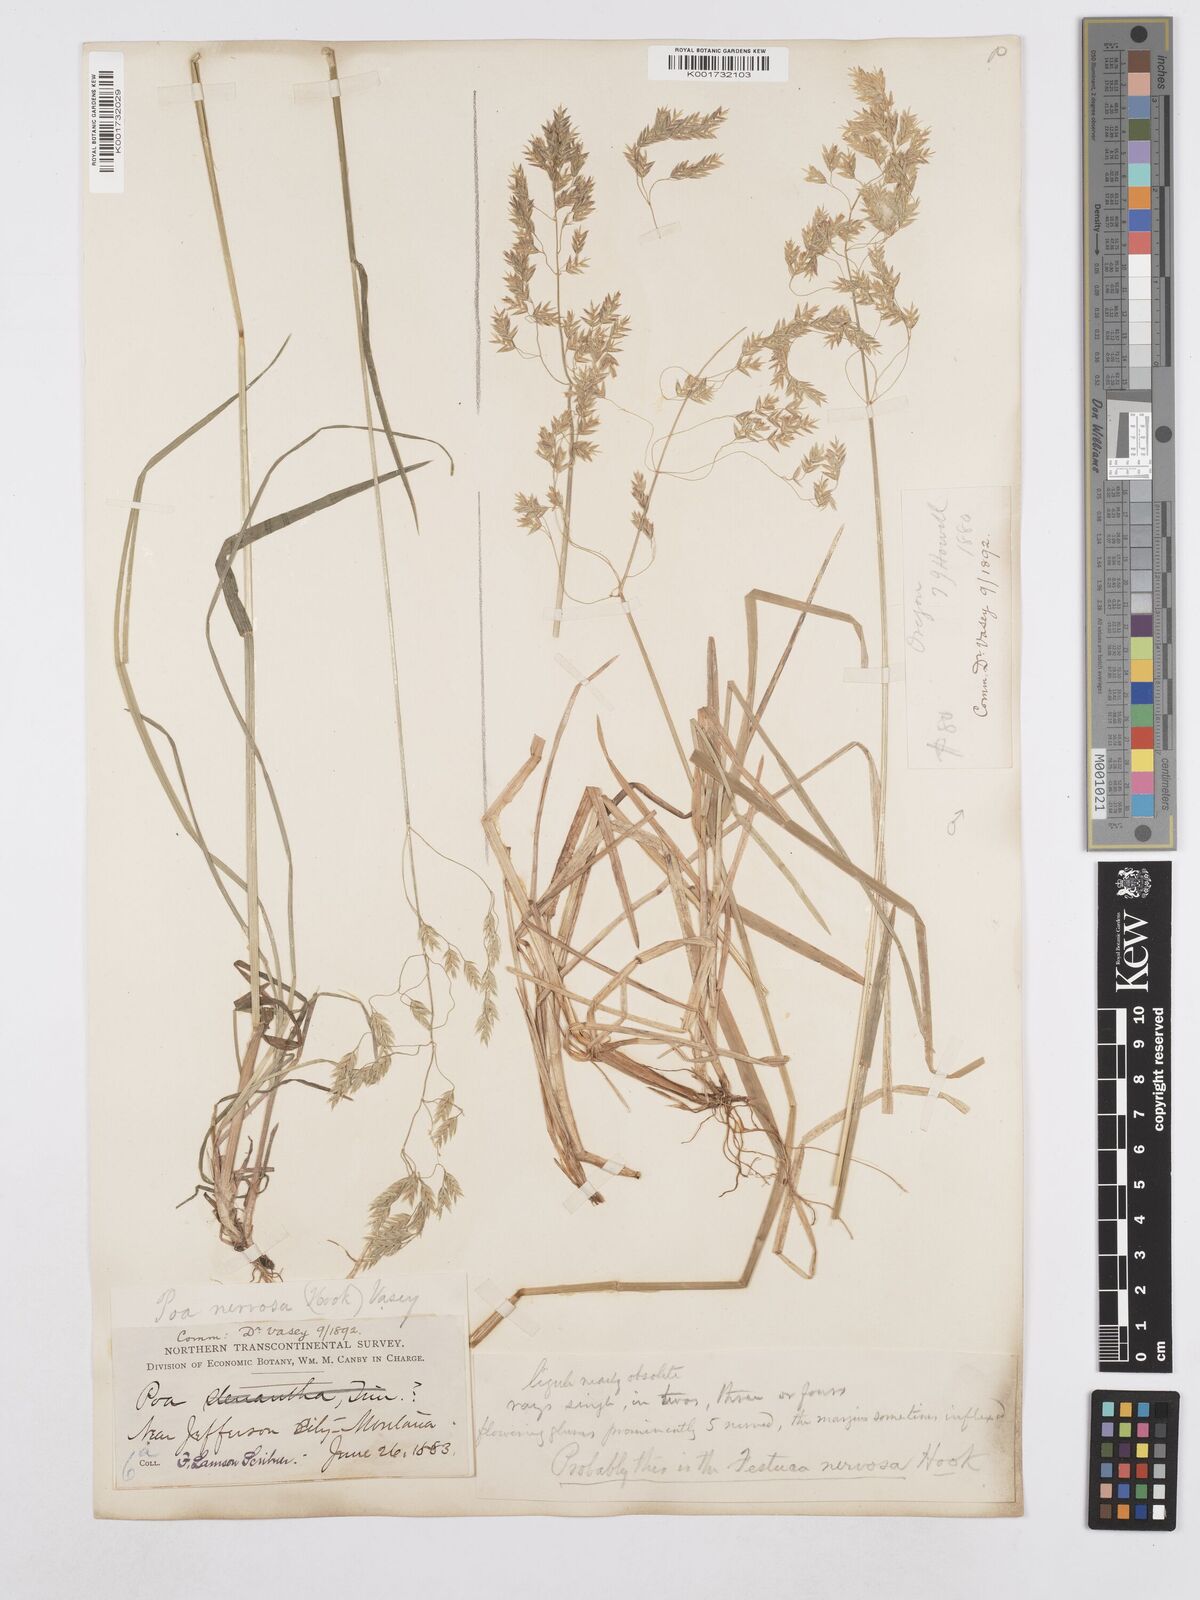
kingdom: Plantae
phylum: Tracheophyta
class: Liliopsida
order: Poales
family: Poaceae
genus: Poa
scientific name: Poa nervosa
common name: Hooker's bluegrass
